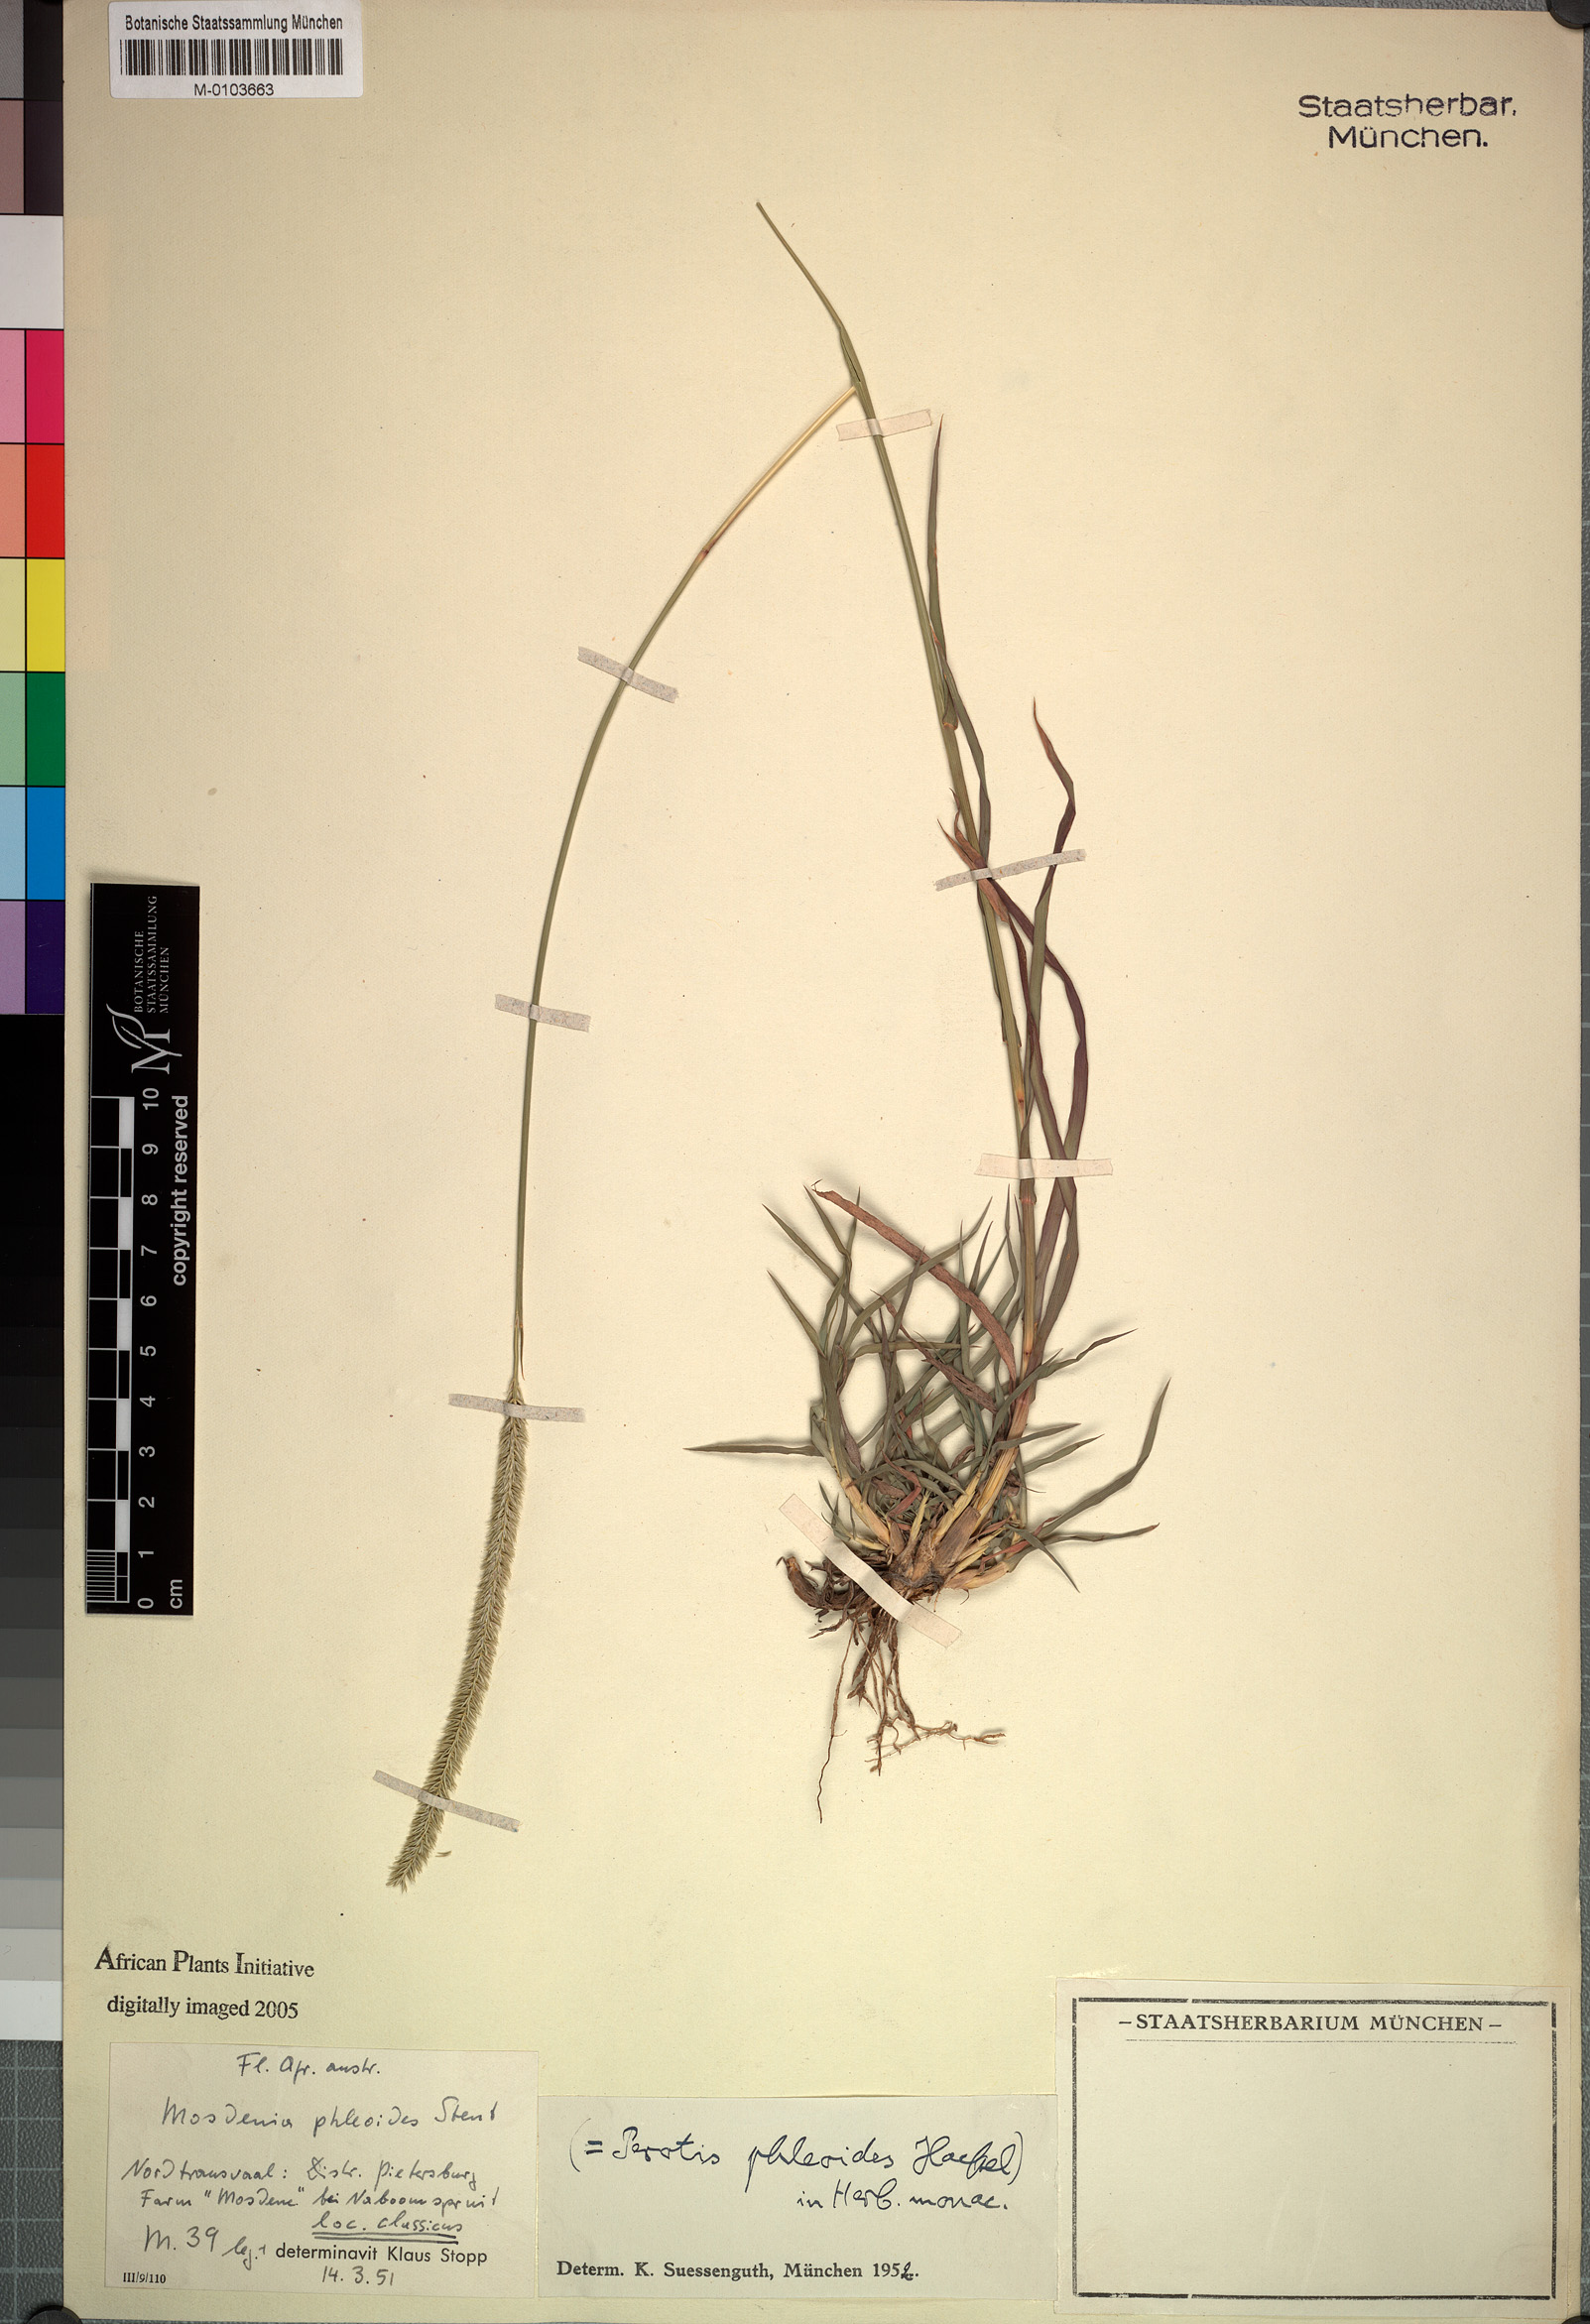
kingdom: Plantae
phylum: Tracheophyta
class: Liliopsida
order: Poales
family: Poaceae
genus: Mosdenia
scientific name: Mosdenia leptostachys
